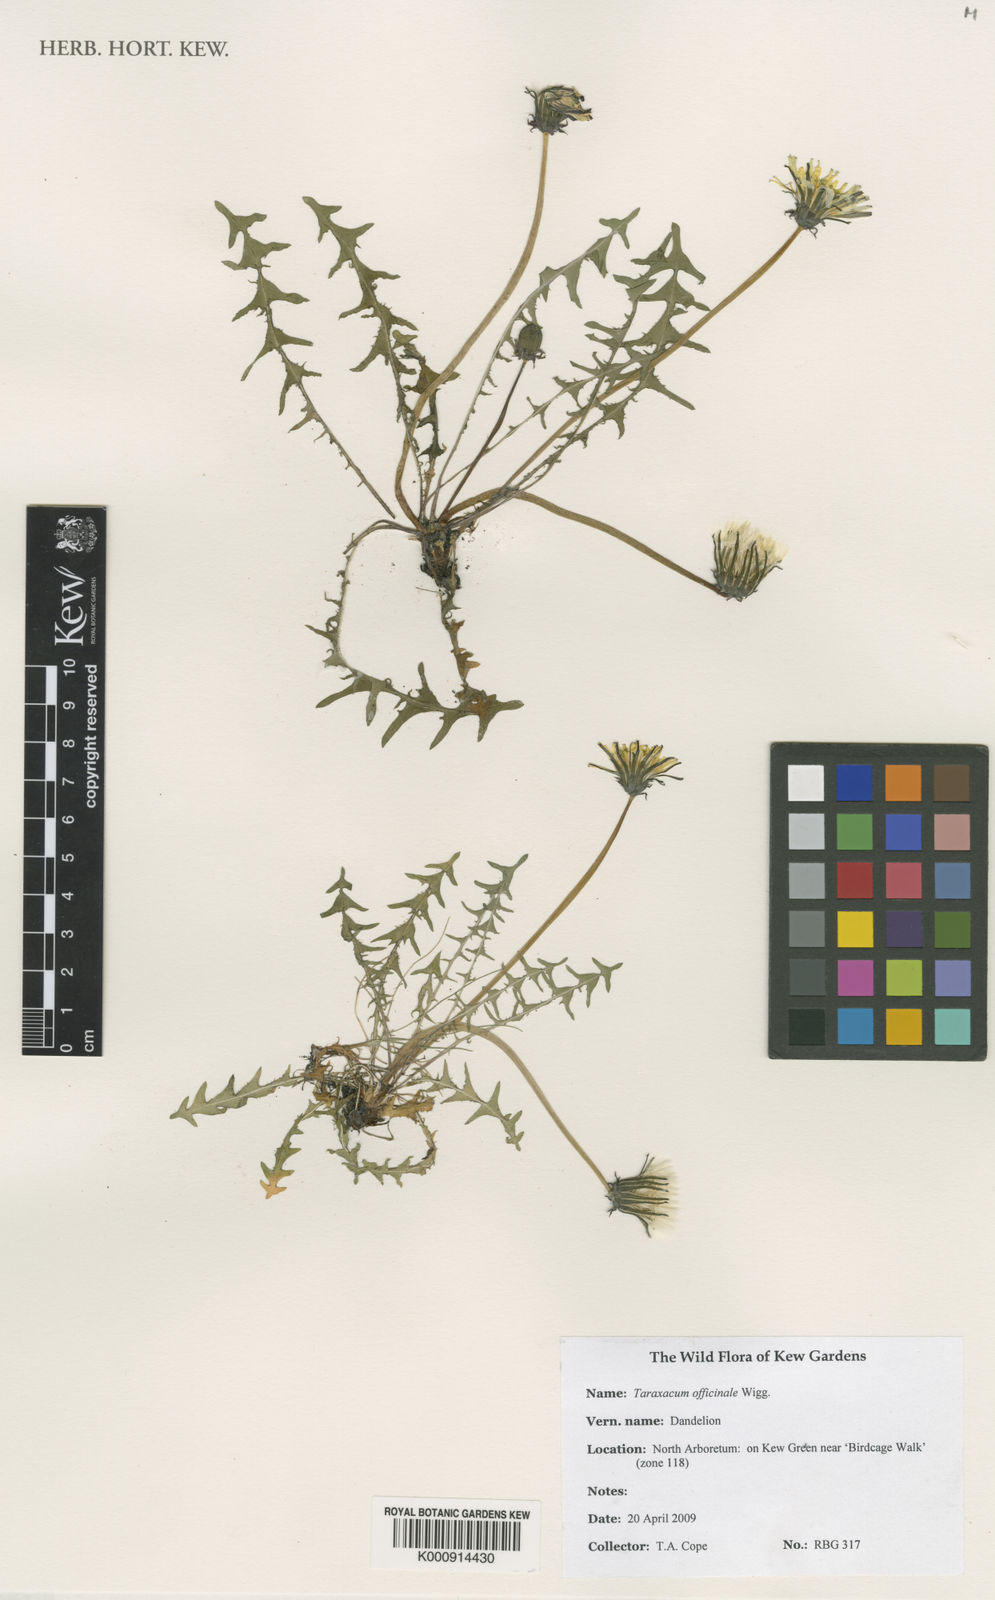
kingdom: Plantae
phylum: Tracheophyta
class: Magnoliopsida
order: Asterales
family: Asteraceae
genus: Taraxacum
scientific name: Taraxacum officinale
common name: Common dandelion
